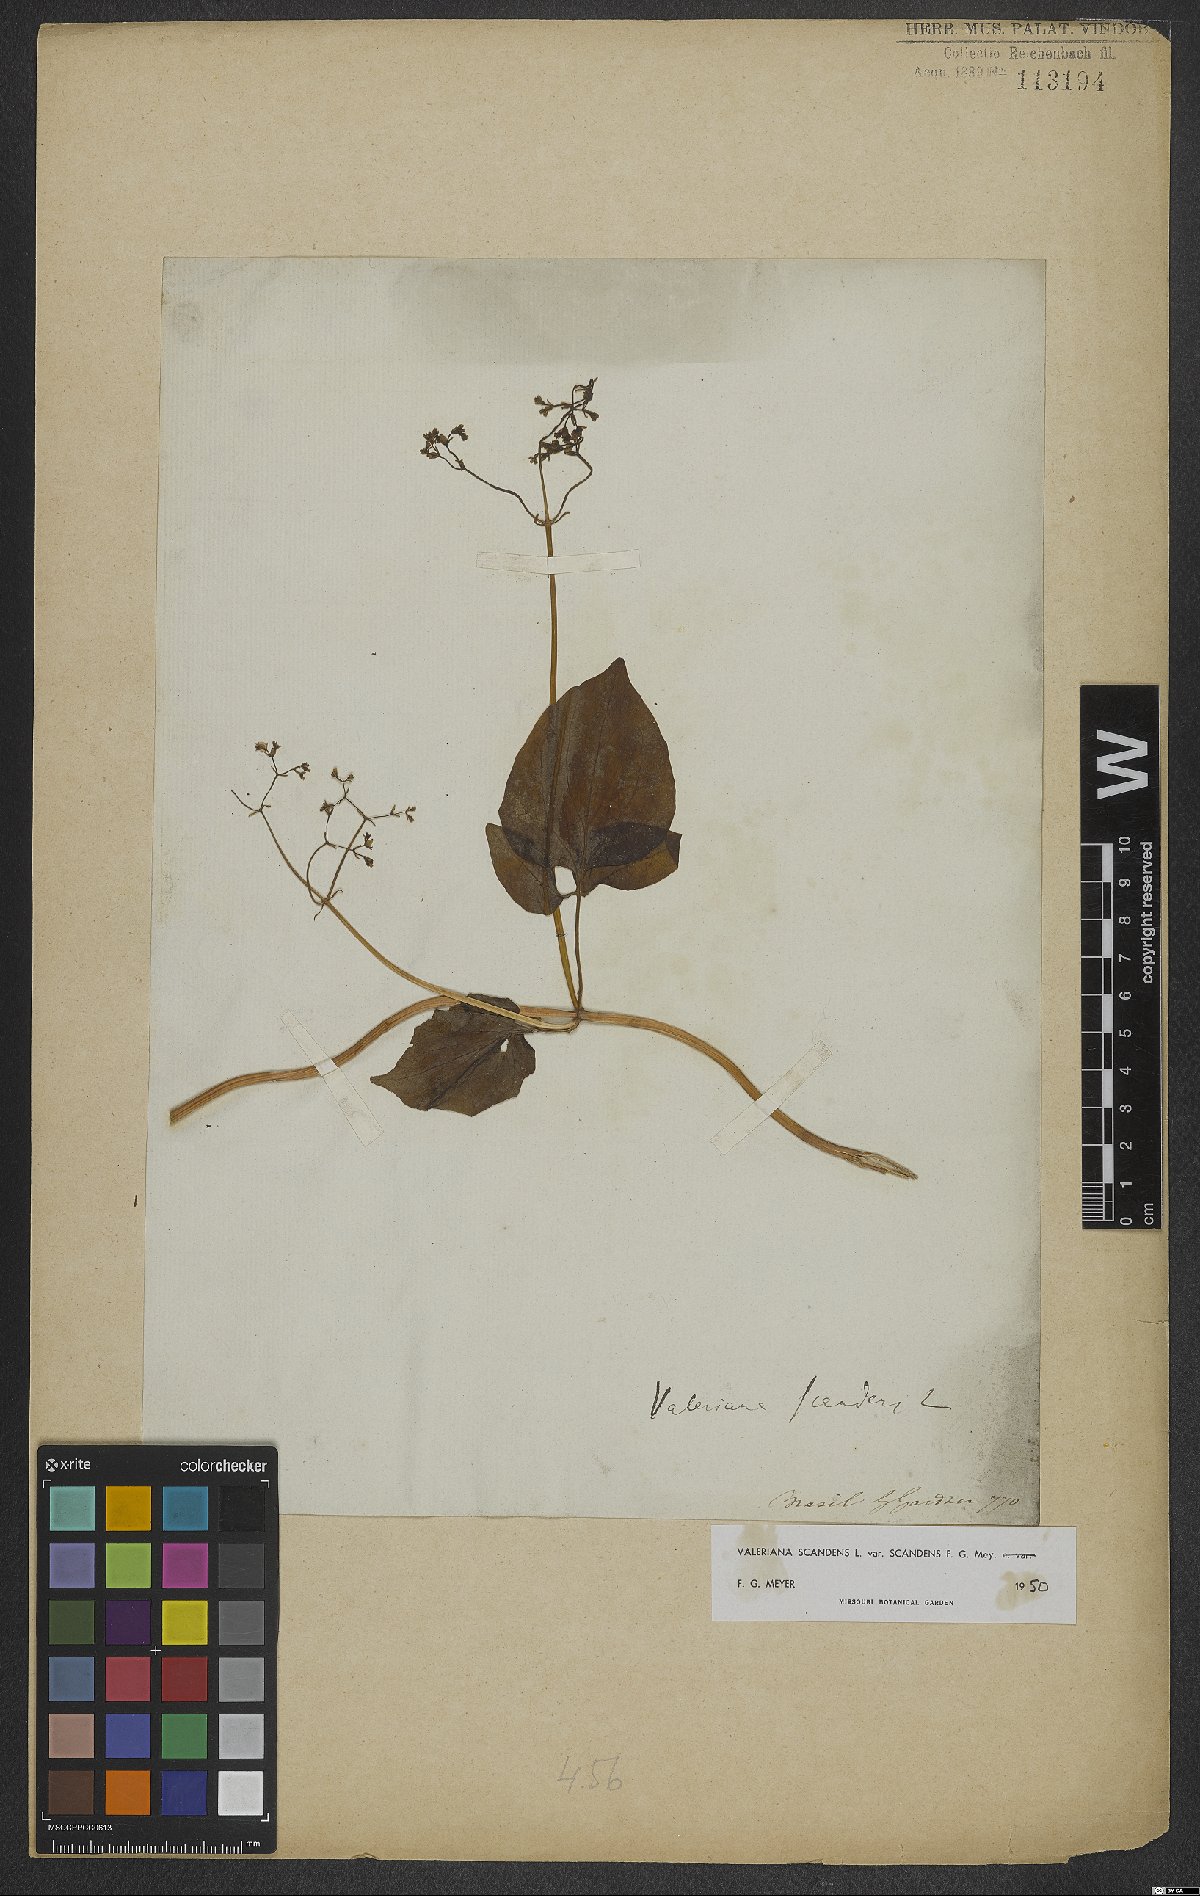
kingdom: Plantae
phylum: Tracheophyta
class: Magnoliopsida
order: Dipsacales
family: Caprifoliaceae
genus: Valeriana
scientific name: Valeriana scandens
